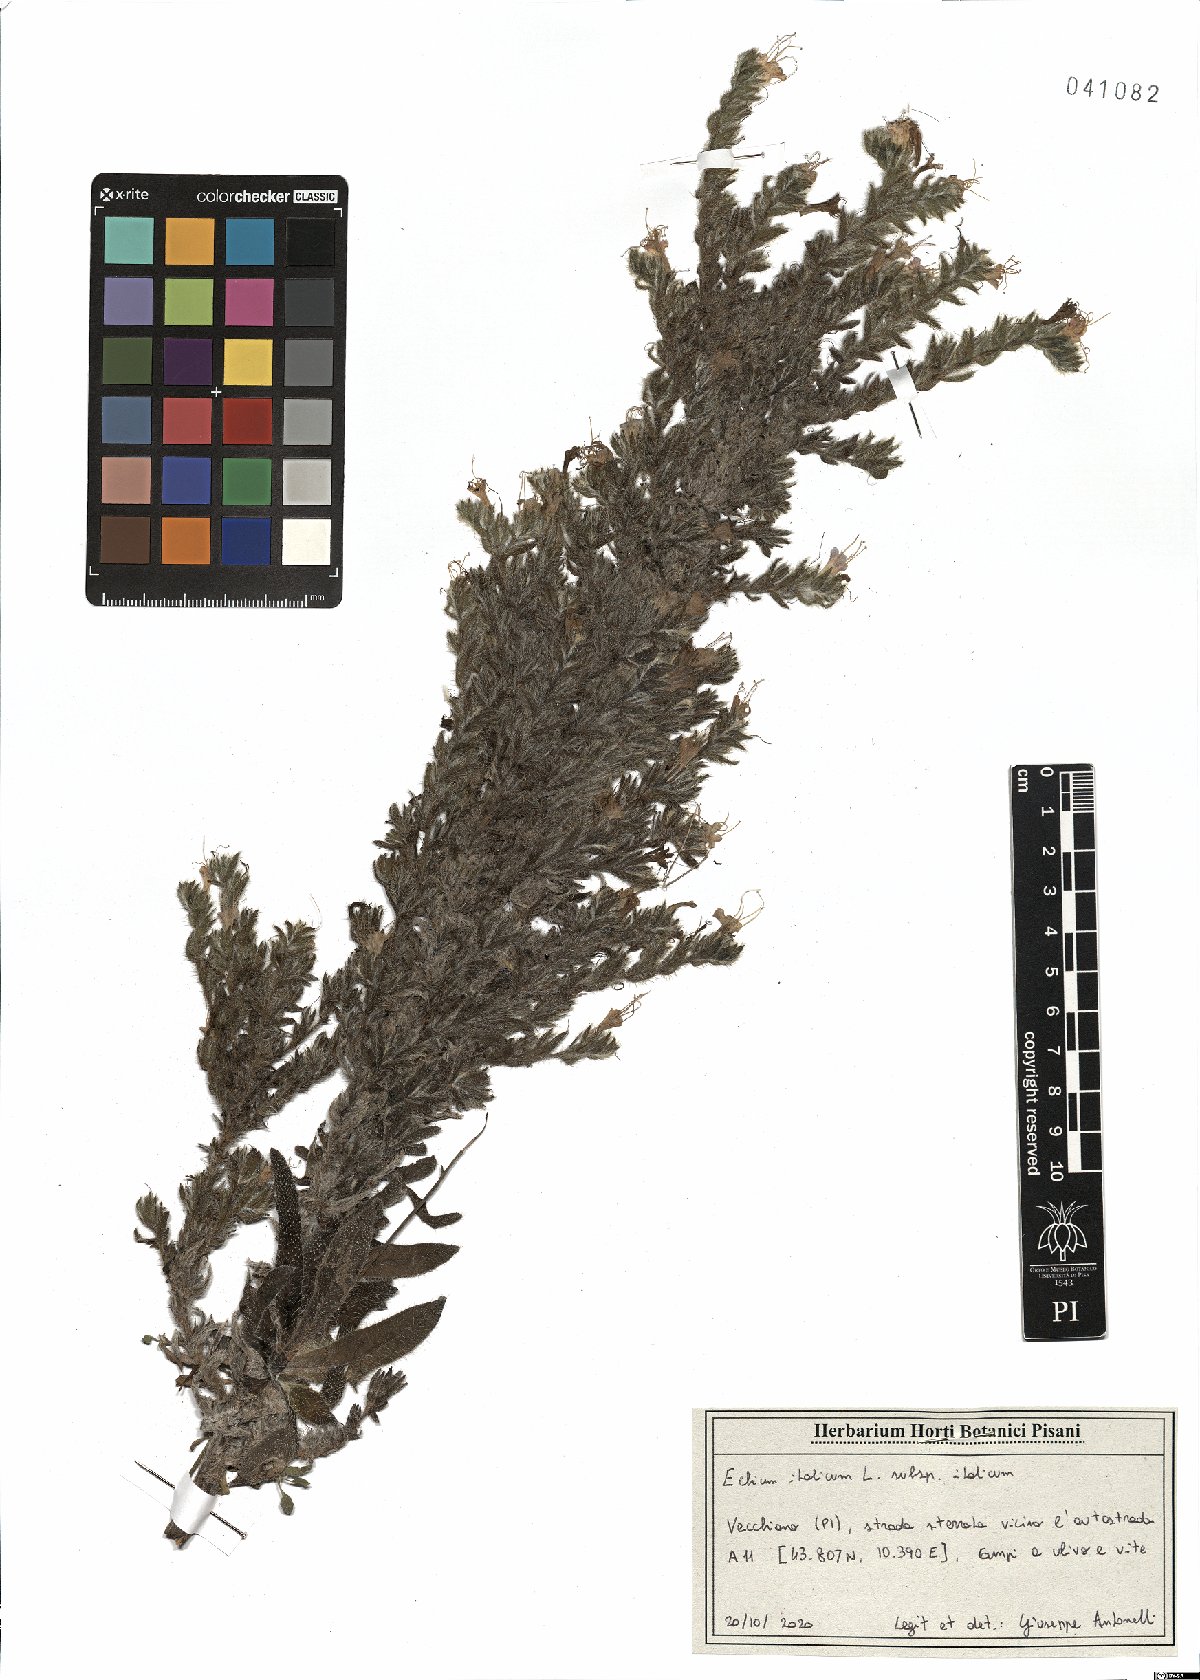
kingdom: Plantae
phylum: Tracheophyta
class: Magnoliopsida
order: Boraginales
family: Boraginaceae
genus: Echium
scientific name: Echium italicum
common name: Italian viper's bugloss
